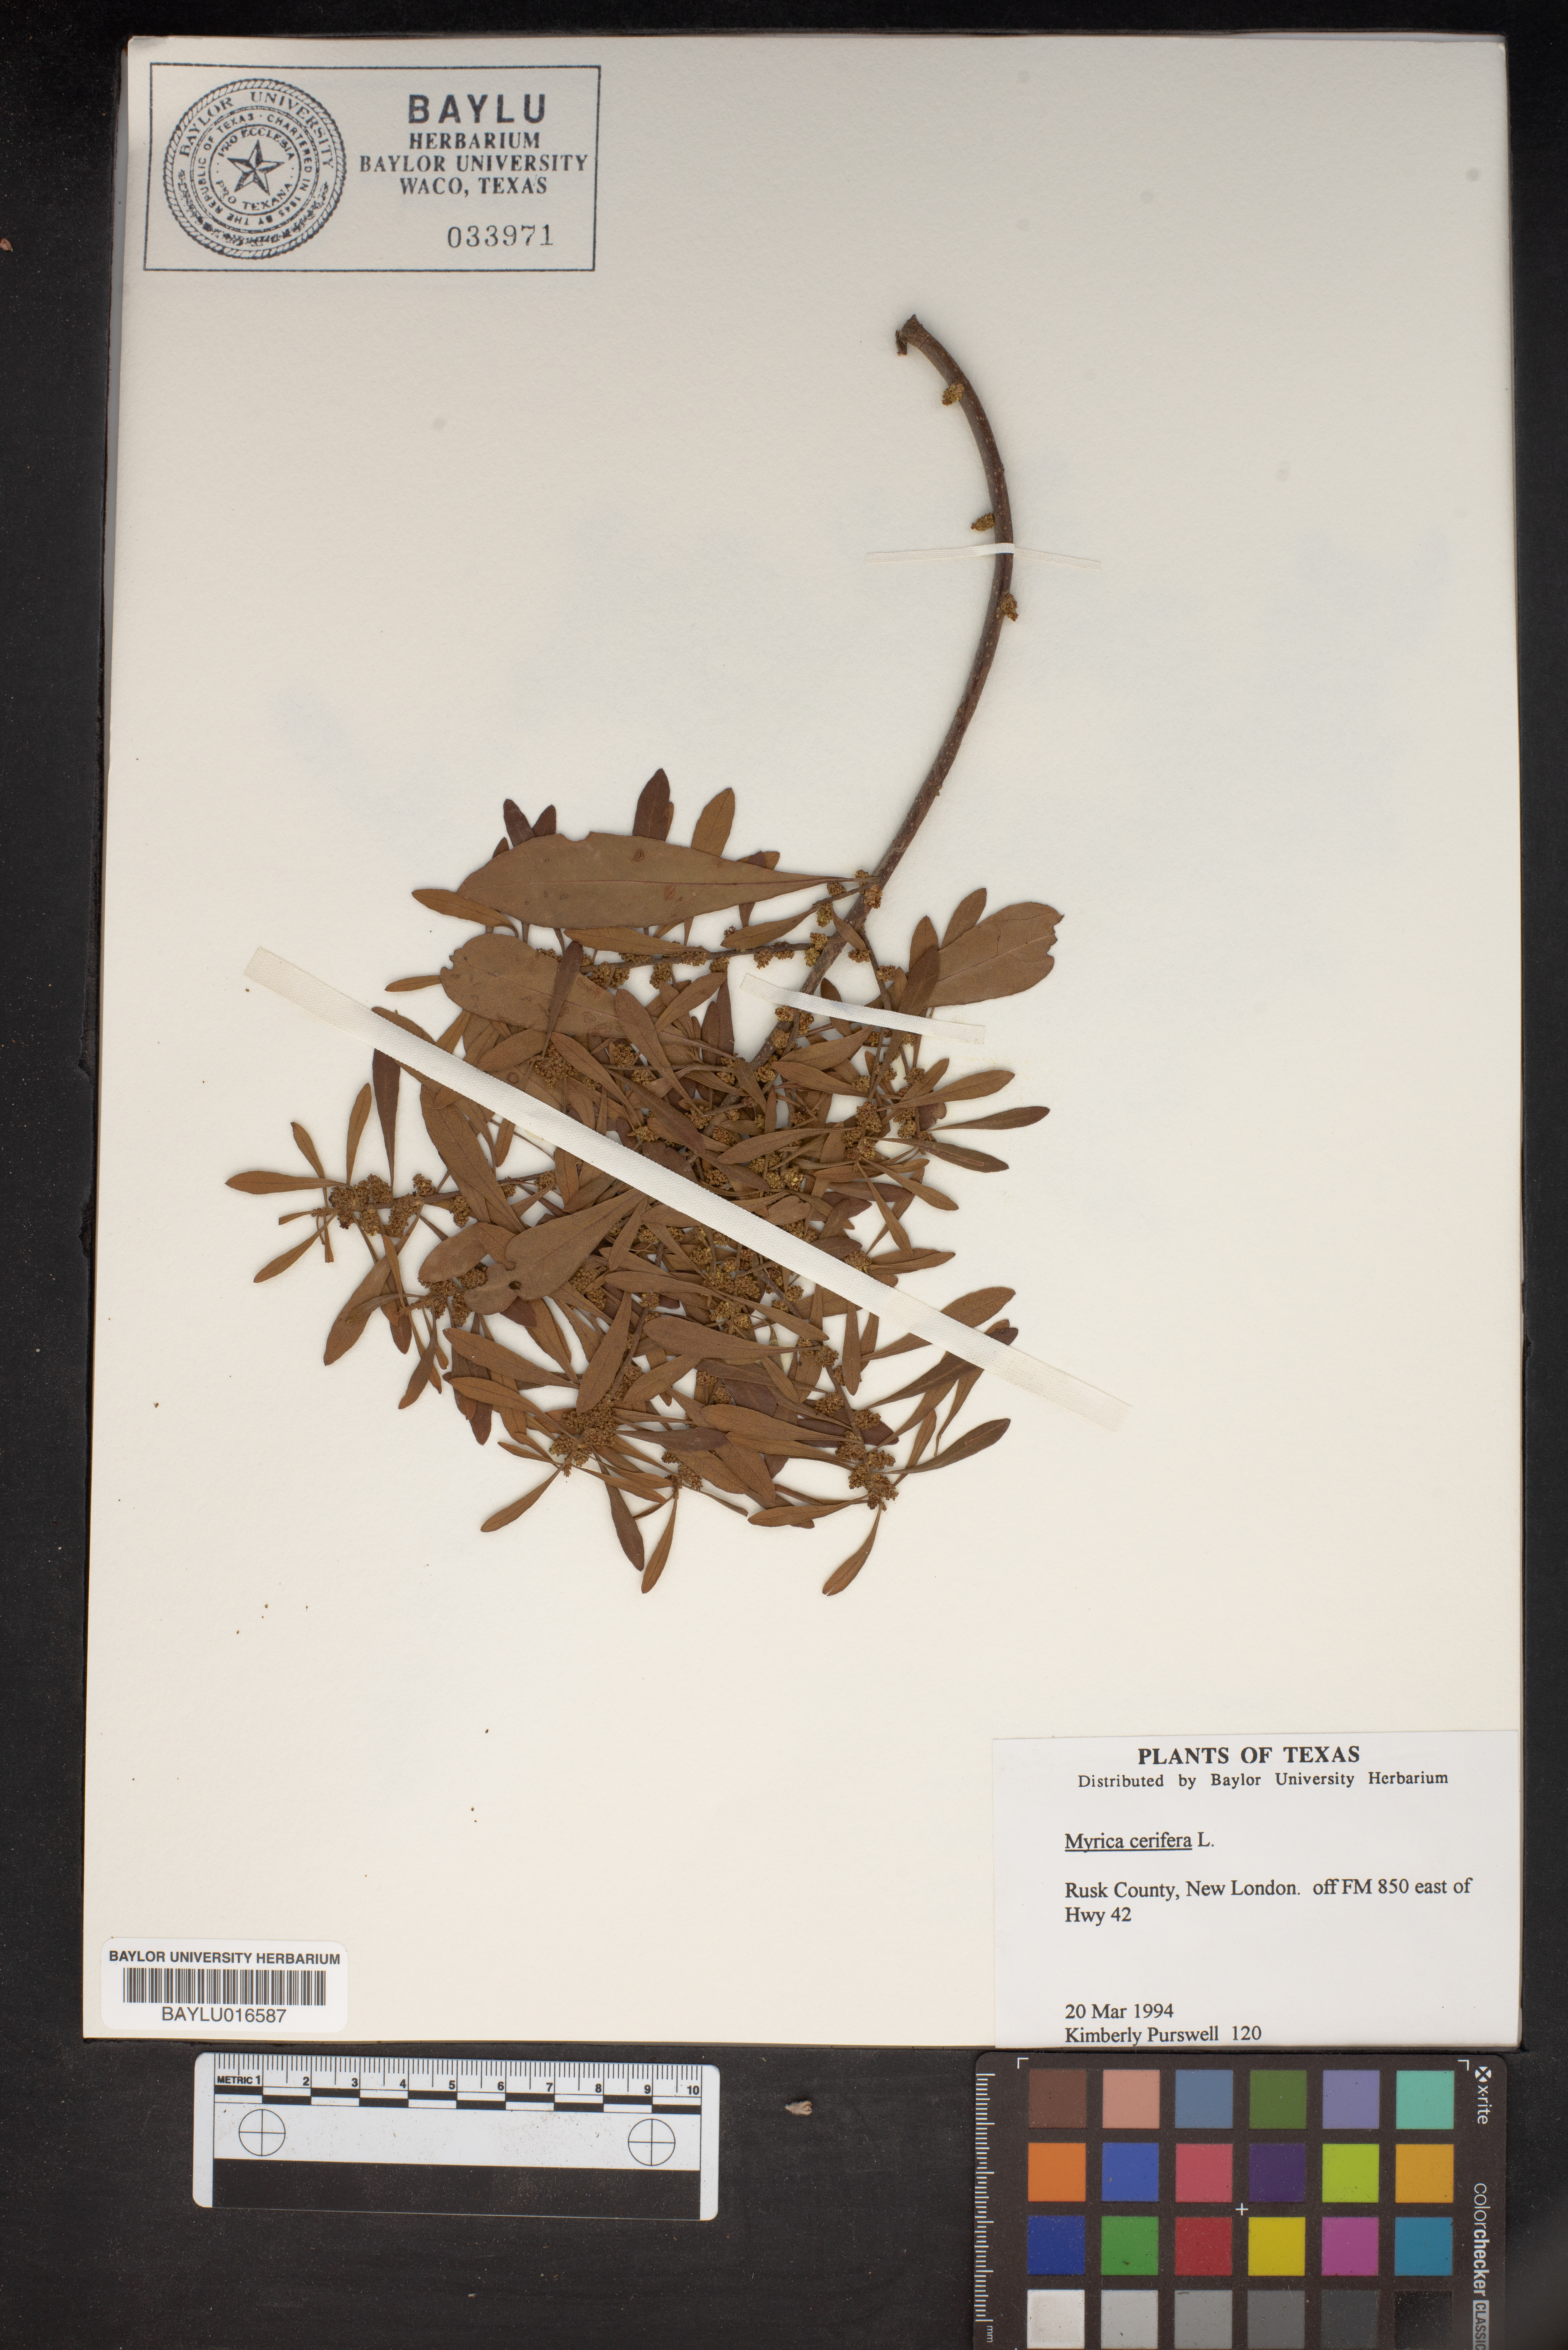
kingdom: Plantae
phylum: Tracheophyta
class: Magnoliopsida
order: Fagales
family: Myricaceae
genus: Morella
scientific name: Morella cerifera
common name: Wax myrtle
